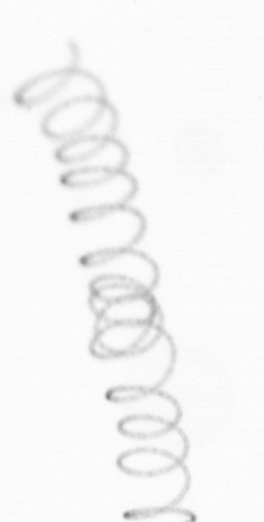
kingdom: Chromista
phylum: Ochrophyta
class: Bacillariophyceae
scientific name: Bacillariophyceae
